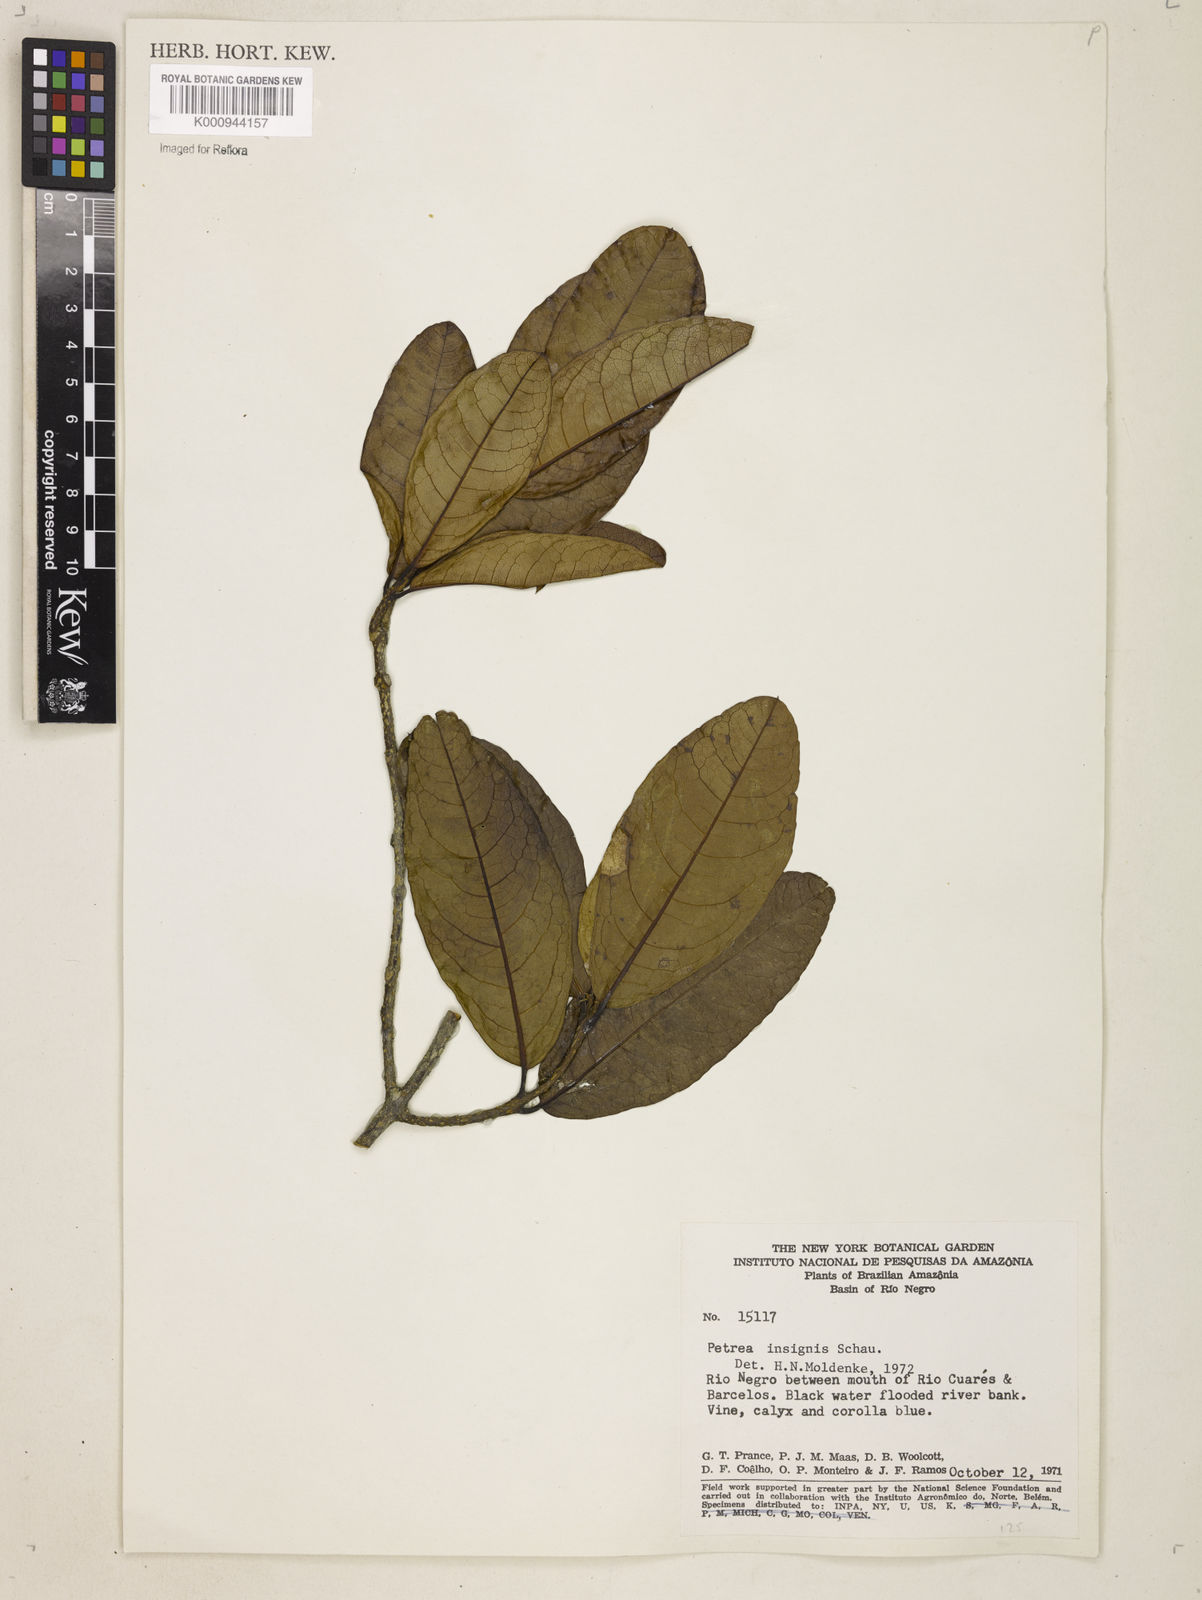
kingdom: Plantae
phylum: Tracheophyta
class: Magnoliopsida
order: Lamiales
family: Verbenaceae
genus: Petrea
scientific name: Petrea insignis
